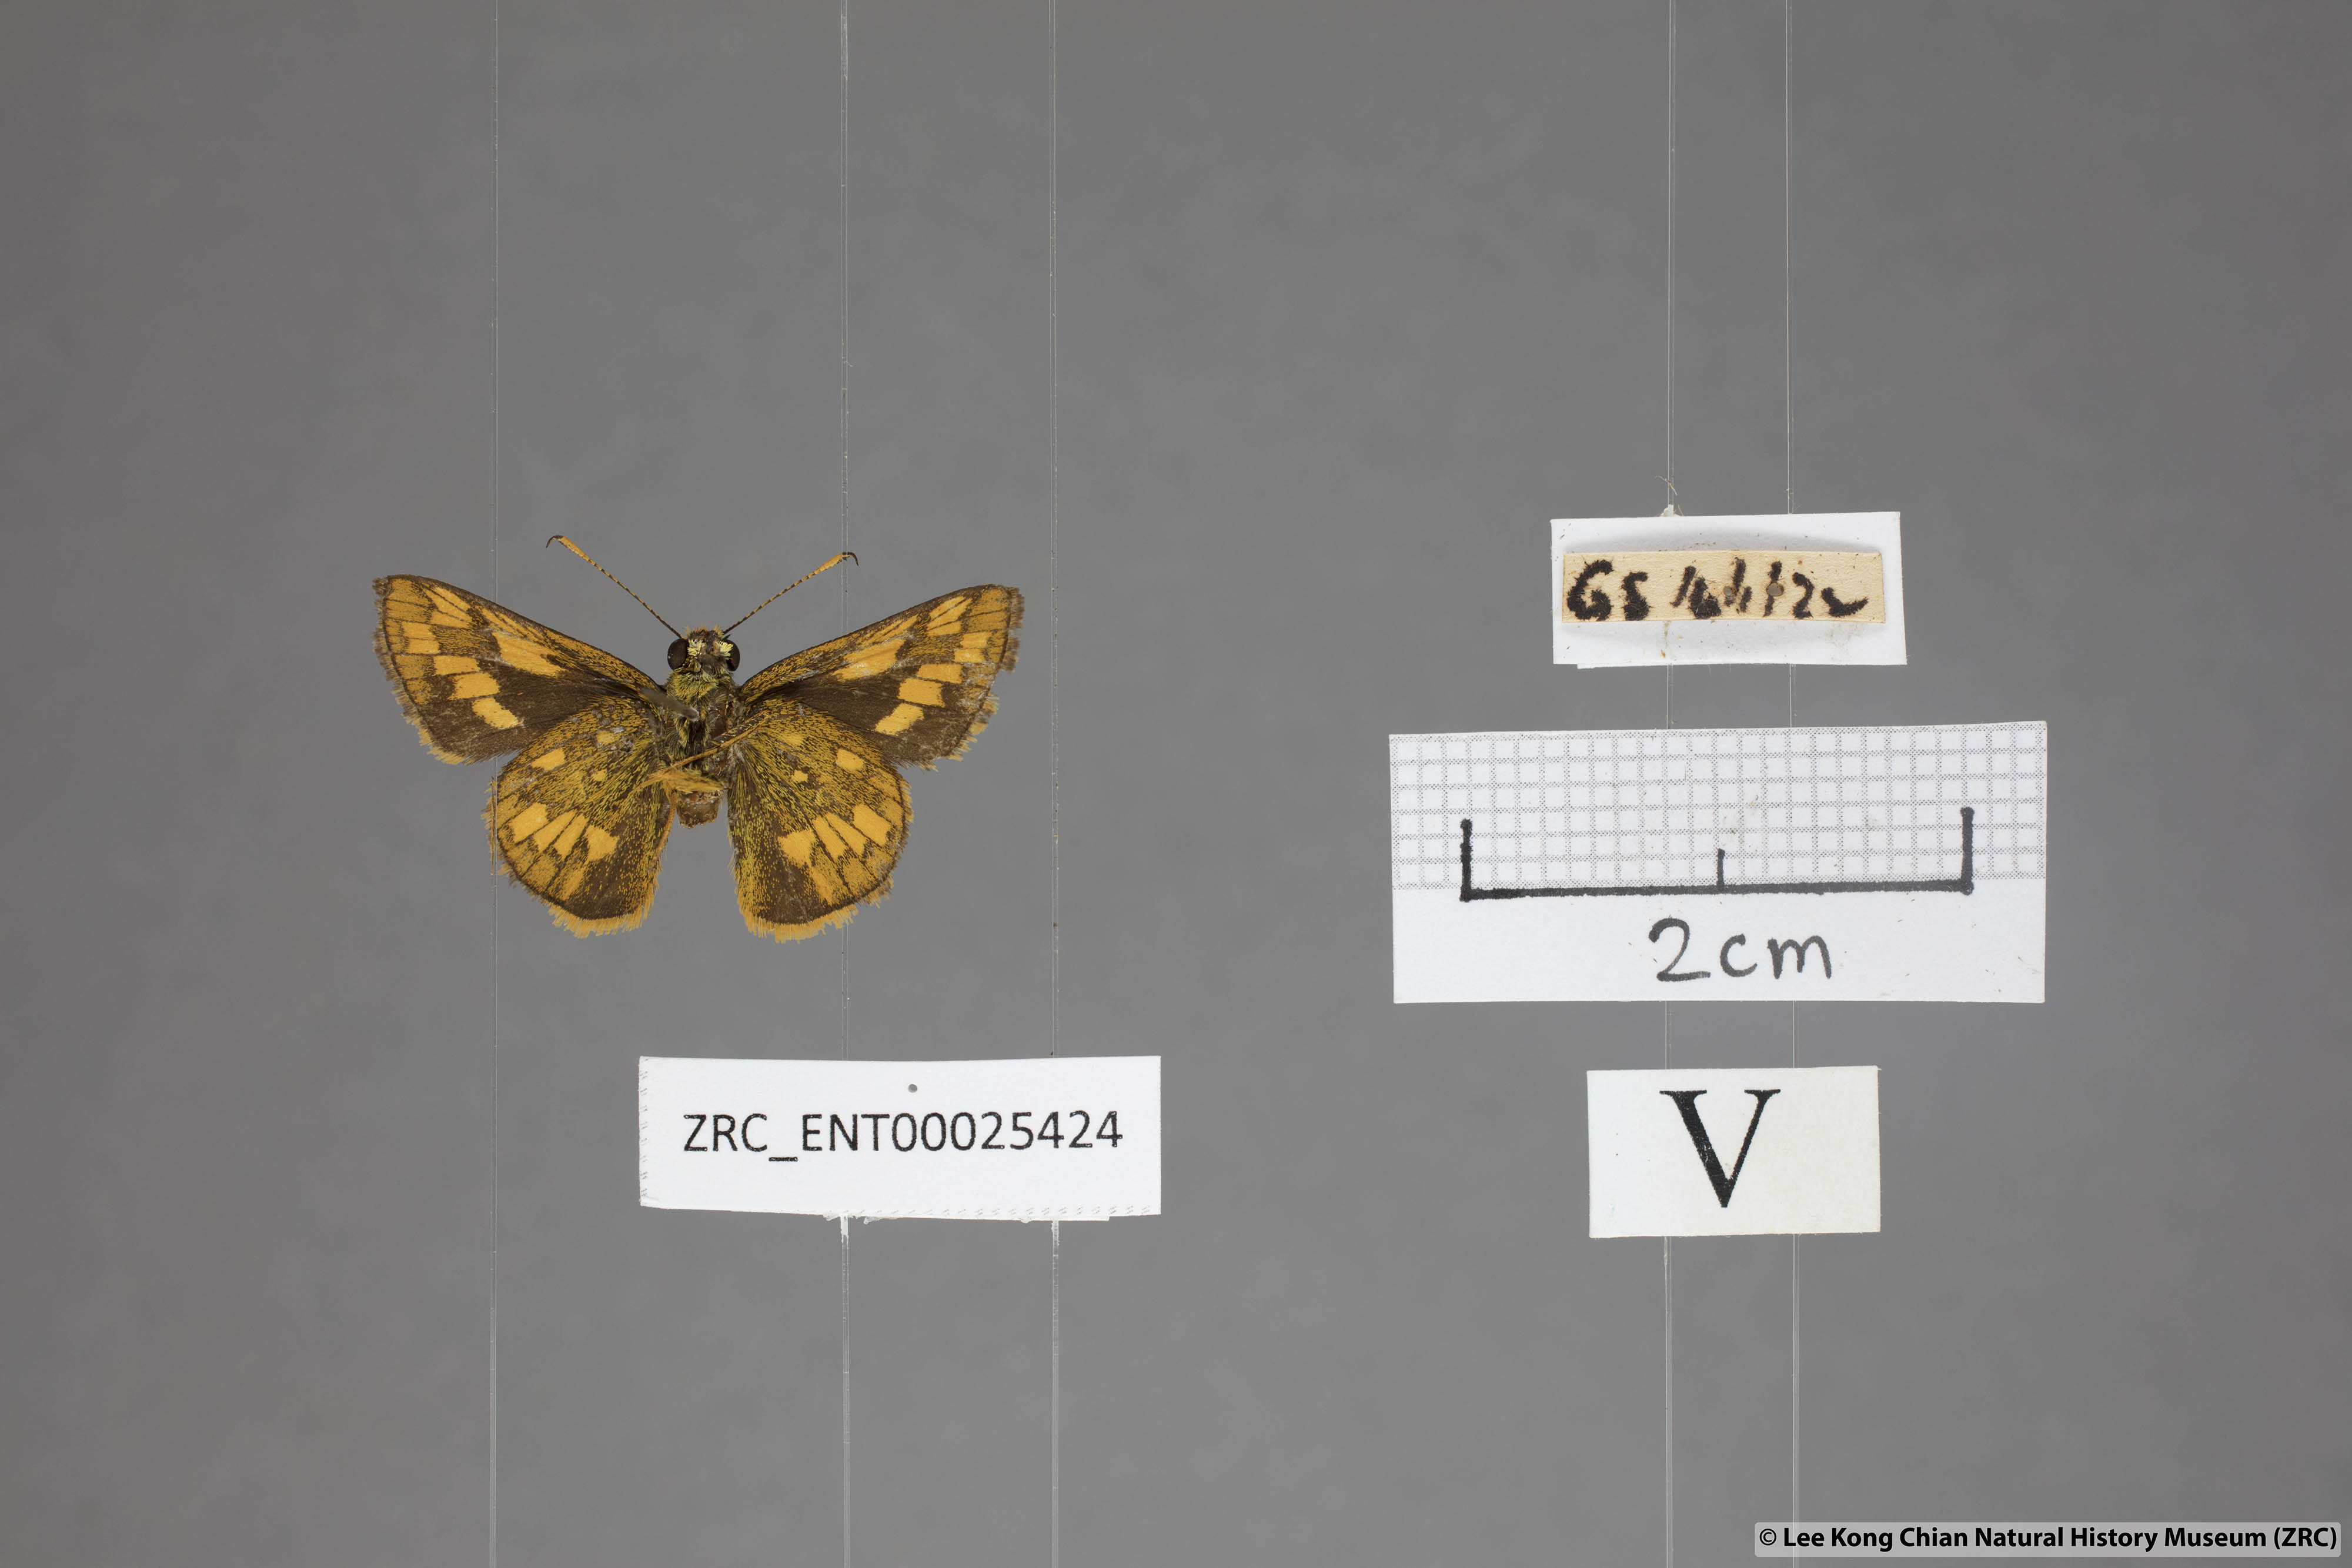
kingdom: Animalia
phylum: Arthropoda
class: Insecta
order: Lepidoptera
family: Hesperiidae
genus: Potanthus
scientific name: Potanthus omaha
